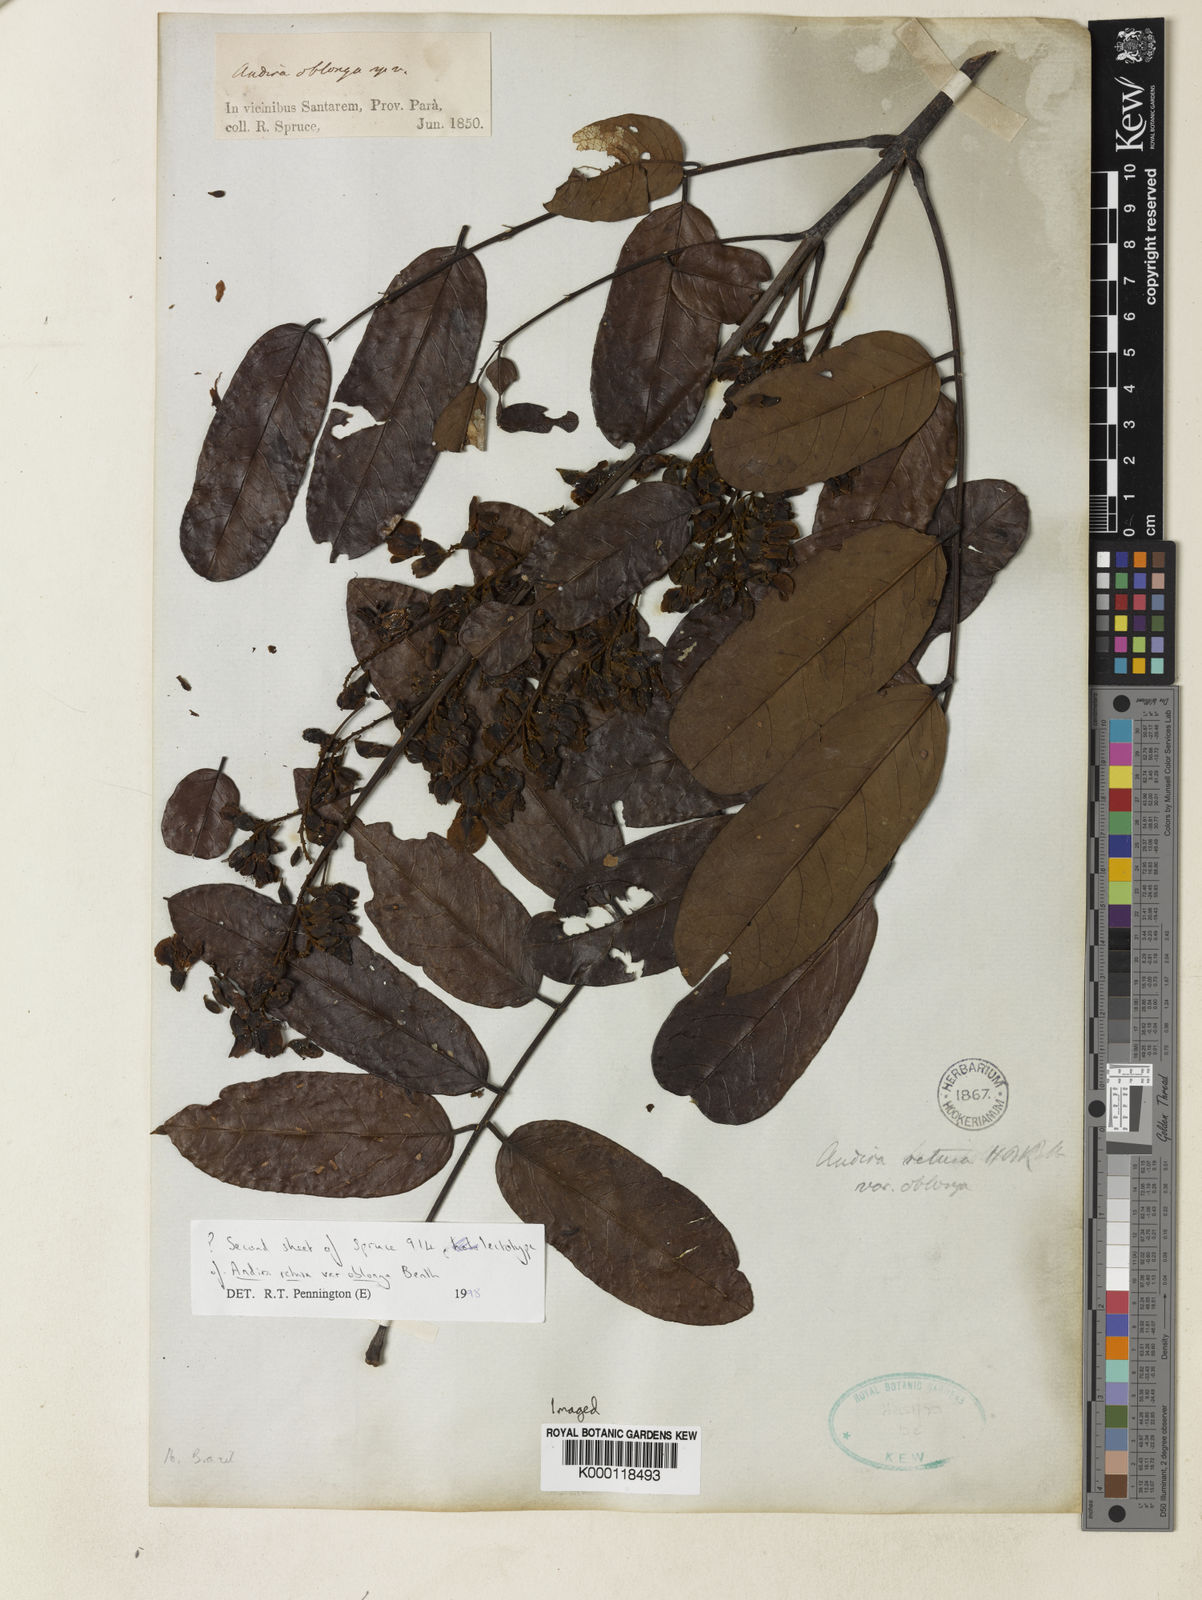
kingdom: Plantae
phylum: Tracheophyta
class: Magnoliopsida
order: Fabales
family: Fabaceae
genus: Andira
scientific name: Andira
